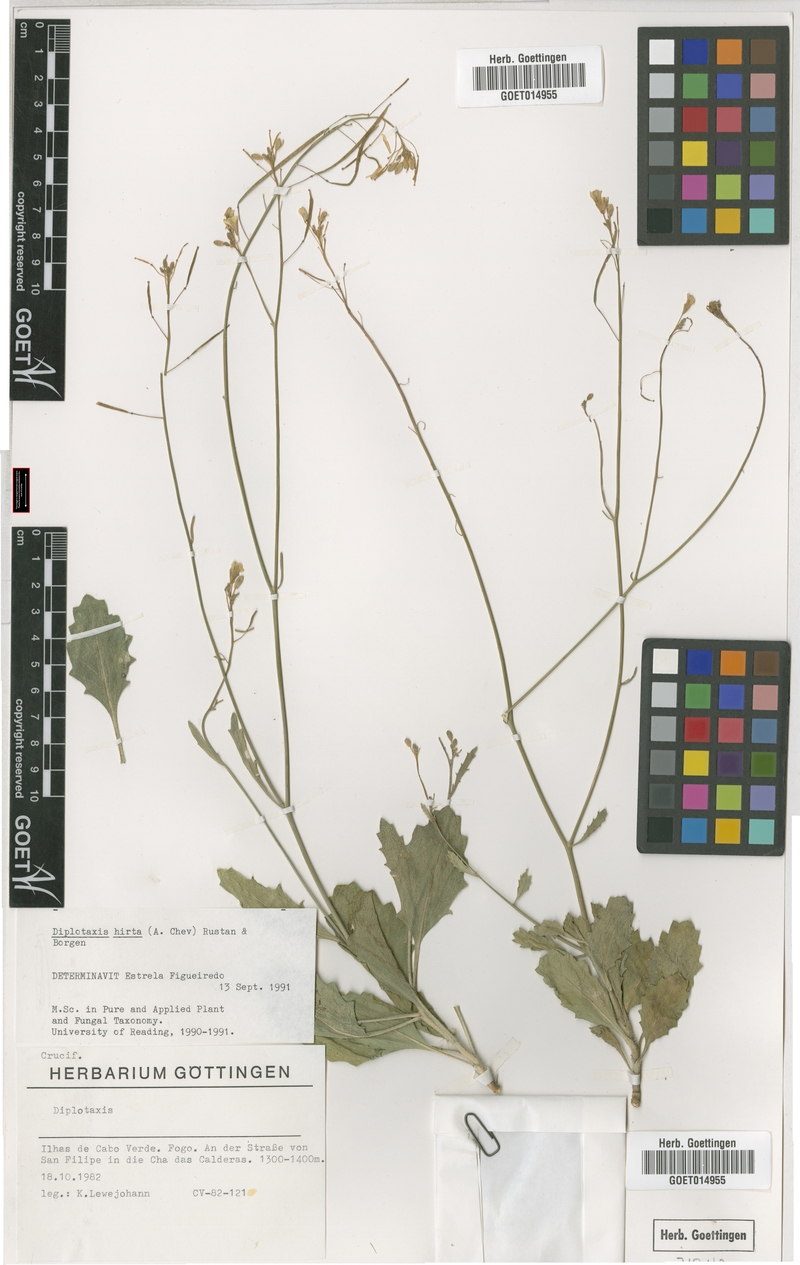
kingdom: Plantae
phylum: Tracheophyta
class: Magnoliopsida
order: Brassicales
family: Brassicaceae
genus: Diplotaxis
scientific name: Diplotaxis hirta
